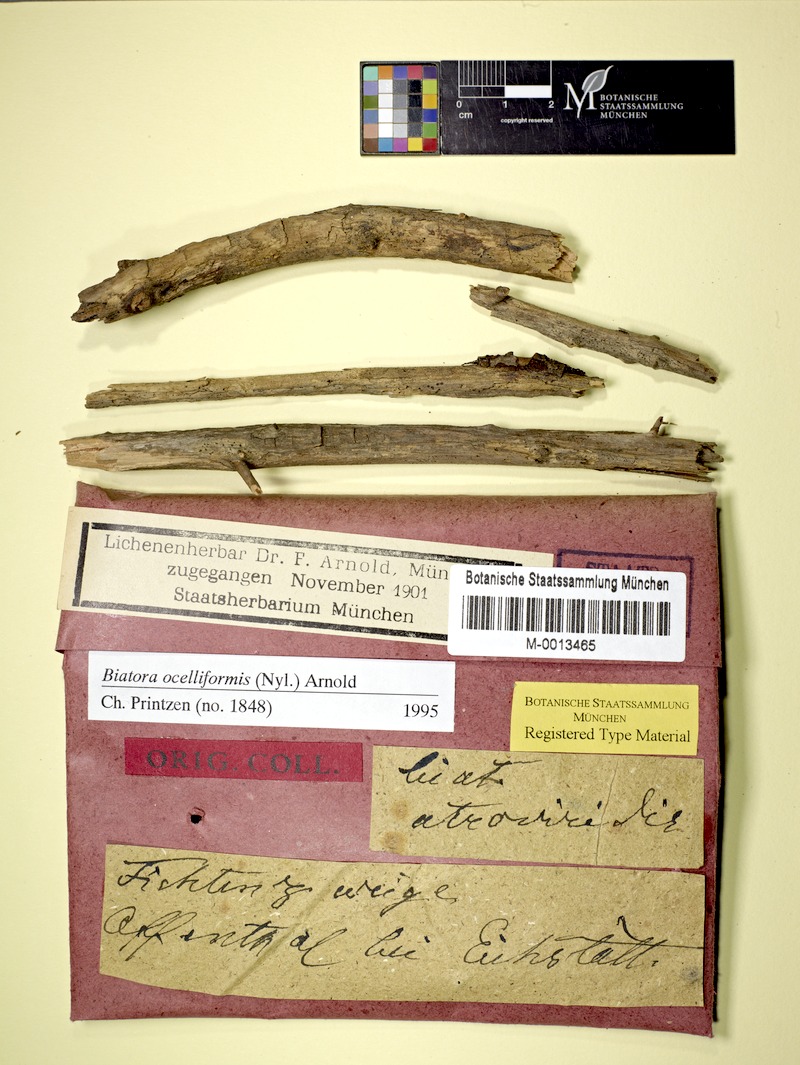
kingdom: Fungi
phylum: Ascomycota
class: Lecanoromycetes
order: Lecanorales
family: Ramalinaceae
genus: Ivanpisutia
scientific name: Ivanpisutia ocelliformis
